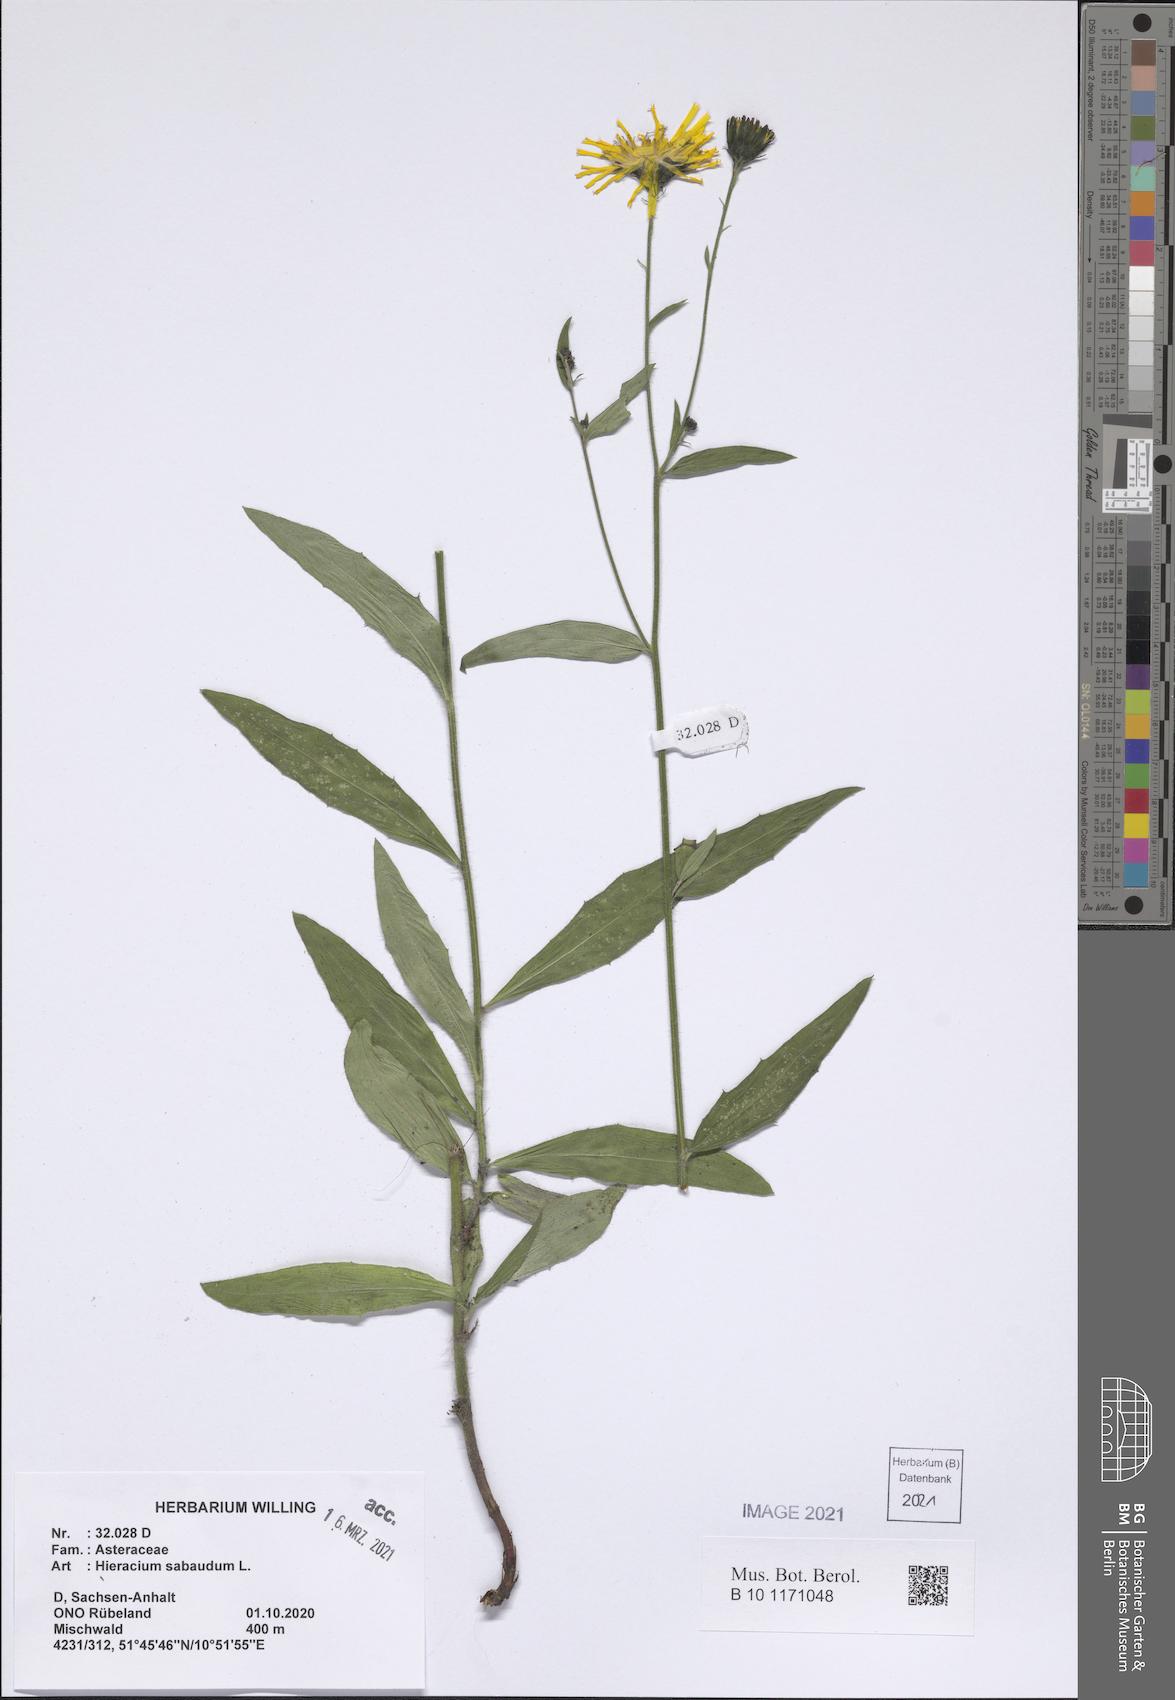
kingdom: Plantae
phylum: Tracheophyta
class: Magnoliopsida
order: Asterales
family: Asteraceae
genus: Hieracium
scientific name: Hieracium sabaudum
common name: New england hawkweed
